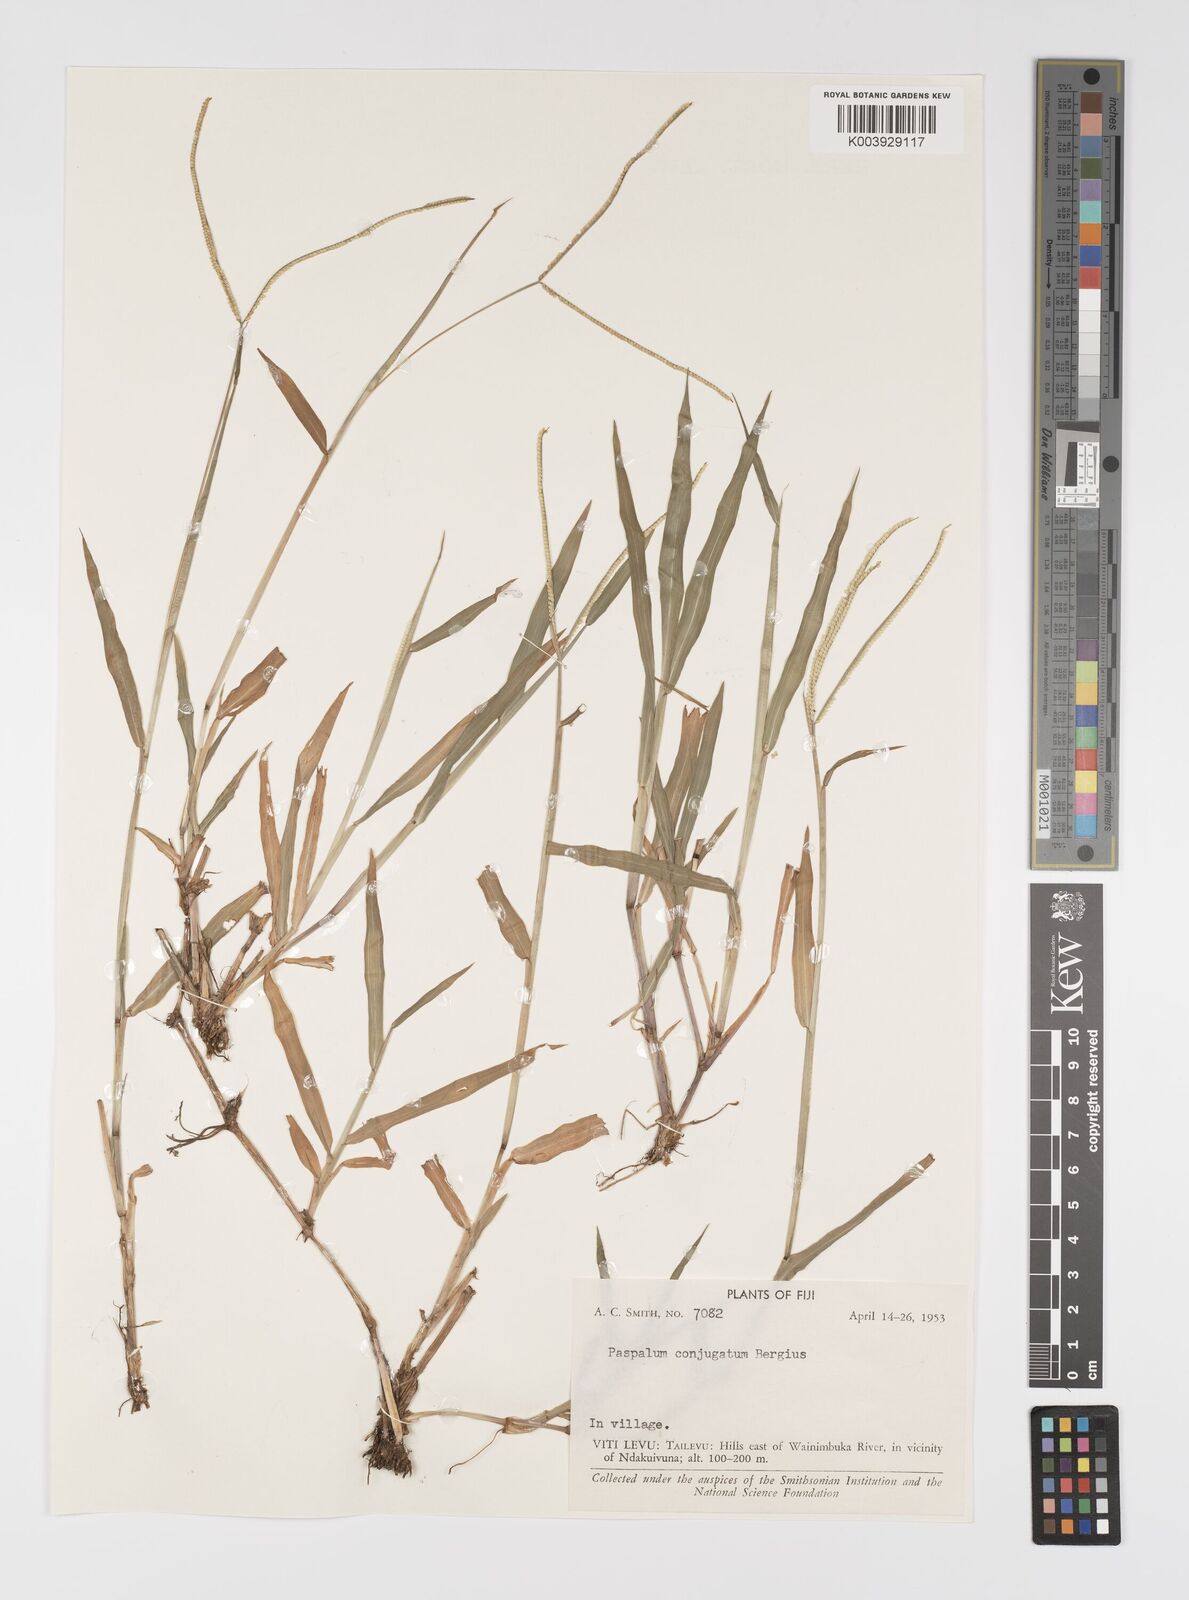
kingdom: Plantae
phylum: Tracheophyta
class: Liliopsida
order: Poales
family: Poaceae
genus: Paspalum
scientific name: Paspalum conjugatum
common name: Hilograss
